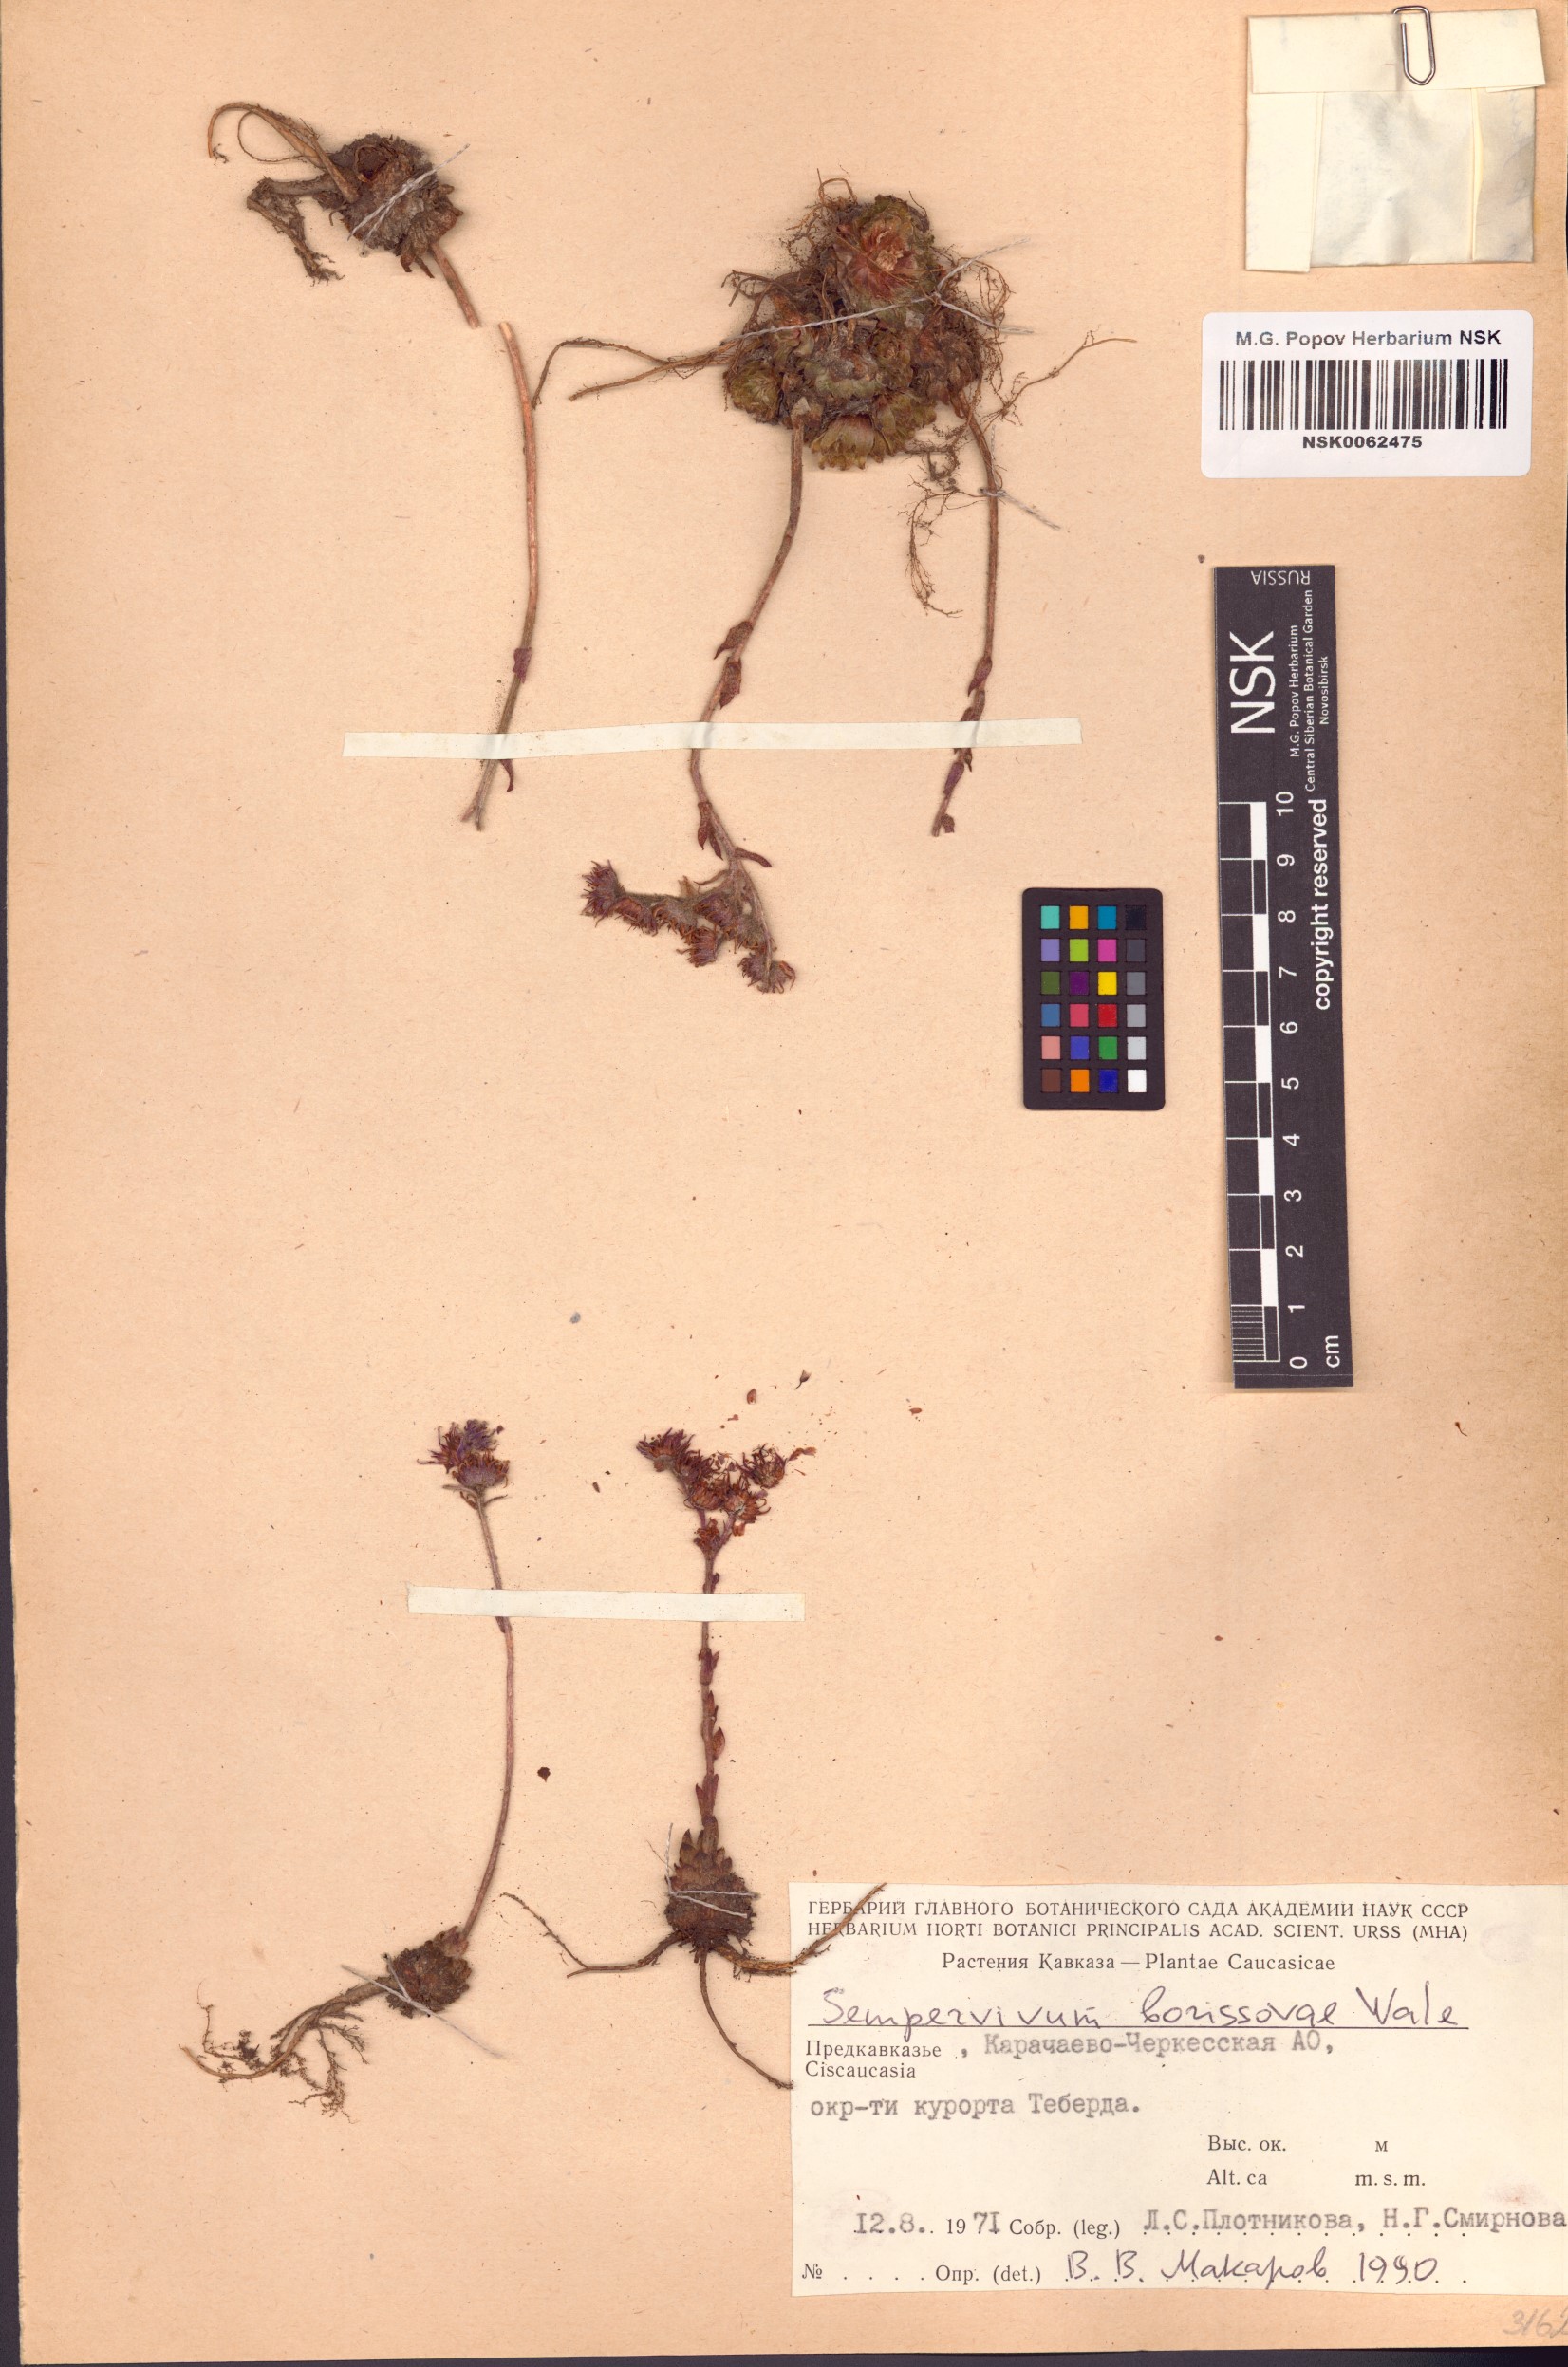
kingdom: Plantae
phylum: Tracheophyta
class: Magnoliopsida
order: Saxifragales
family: Crassulaceae
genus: Sempervivum
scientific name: Sempervivum borissovae
